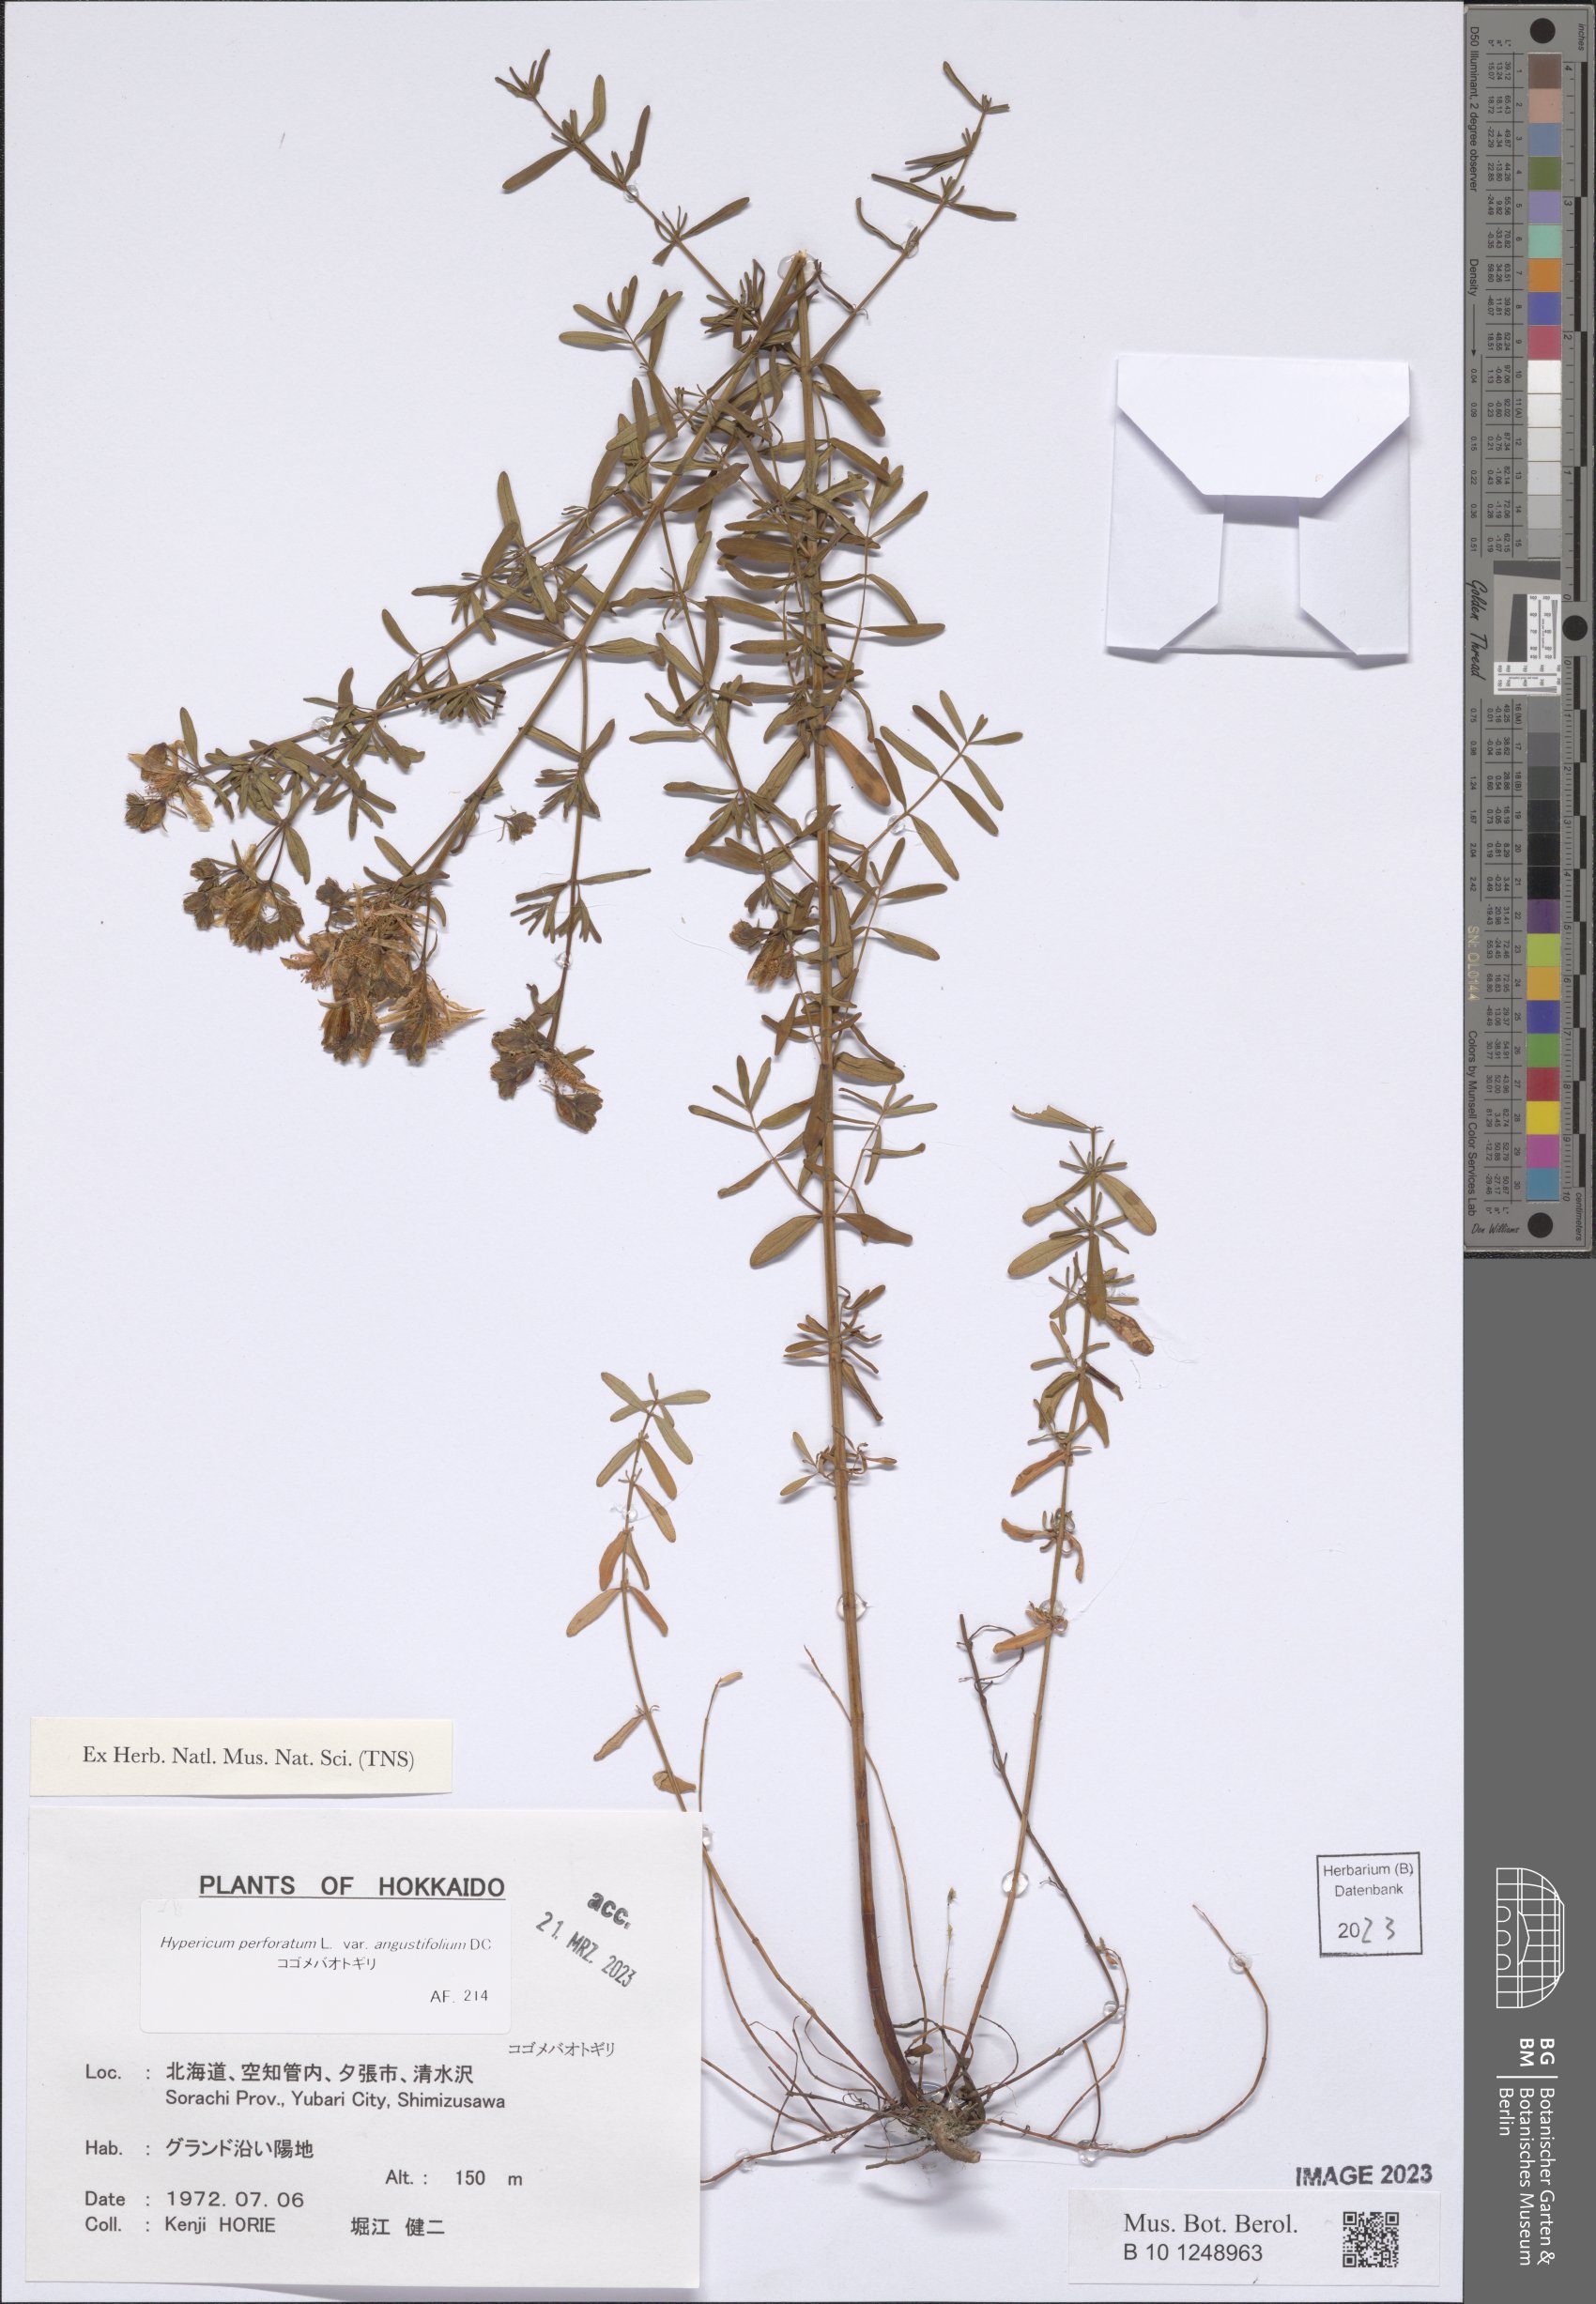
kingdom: Plantae
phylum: Tracheophyta
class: Magnoliopsida
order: Malpighiales
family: Hypericaceae
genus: Hypericum
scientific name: Hypericum perforatum
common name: Common st. johnswort
